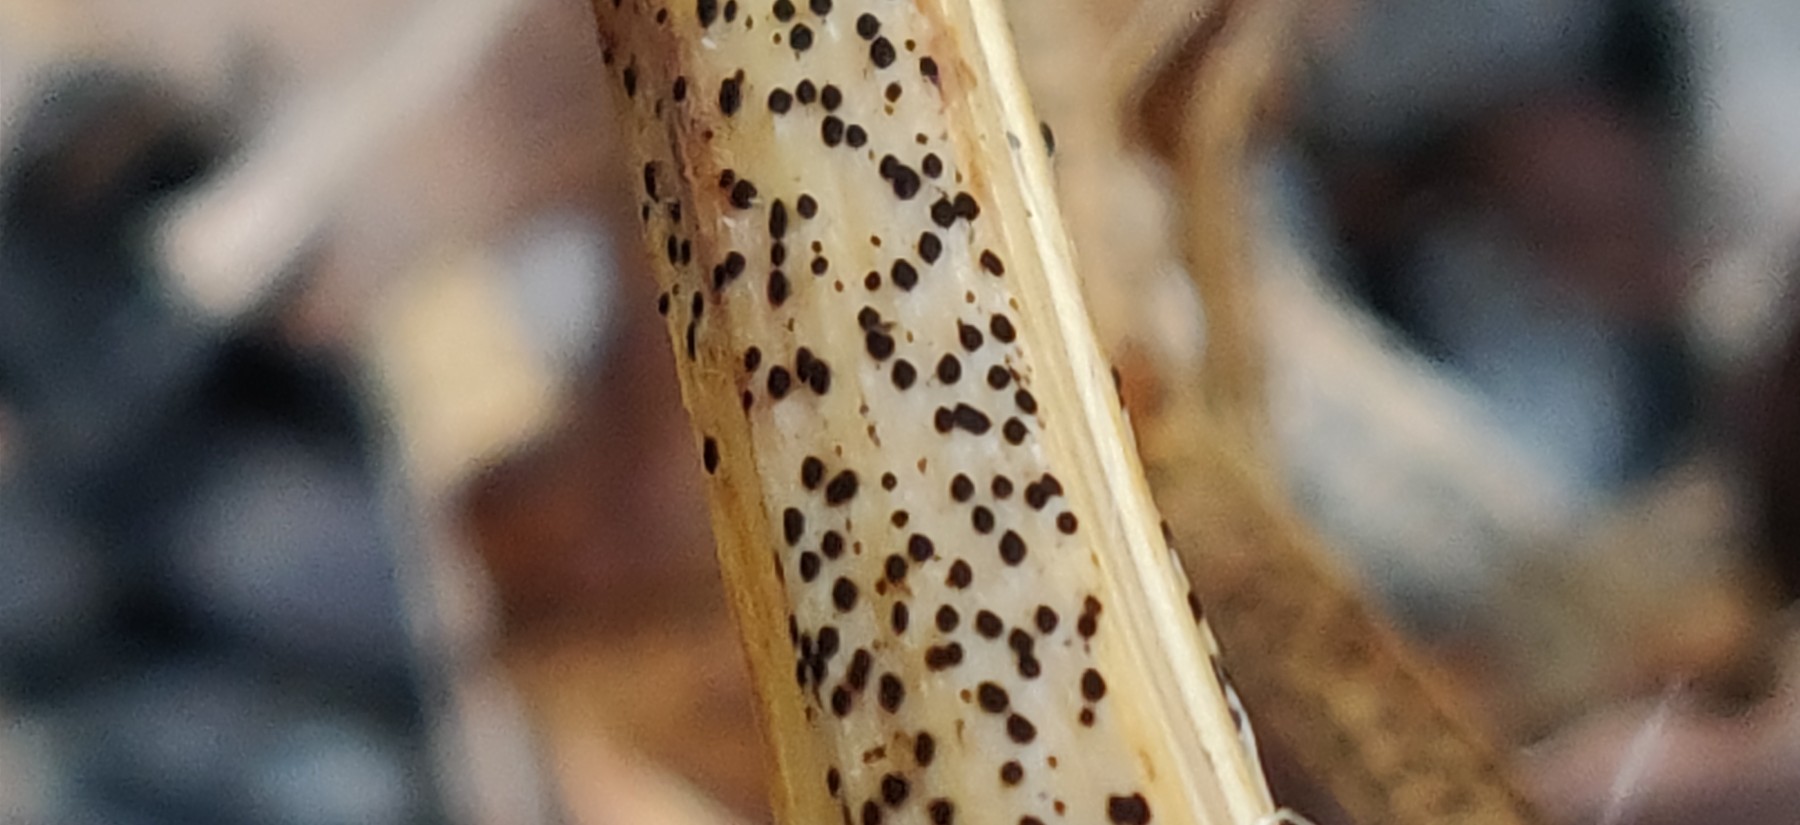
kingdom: Fungi
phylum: Ascomycota
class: Leotiomycetes
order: Rhytismatales
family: Rhytismataceae
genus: Lophodermium
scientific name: Lophodermium paeoniae
